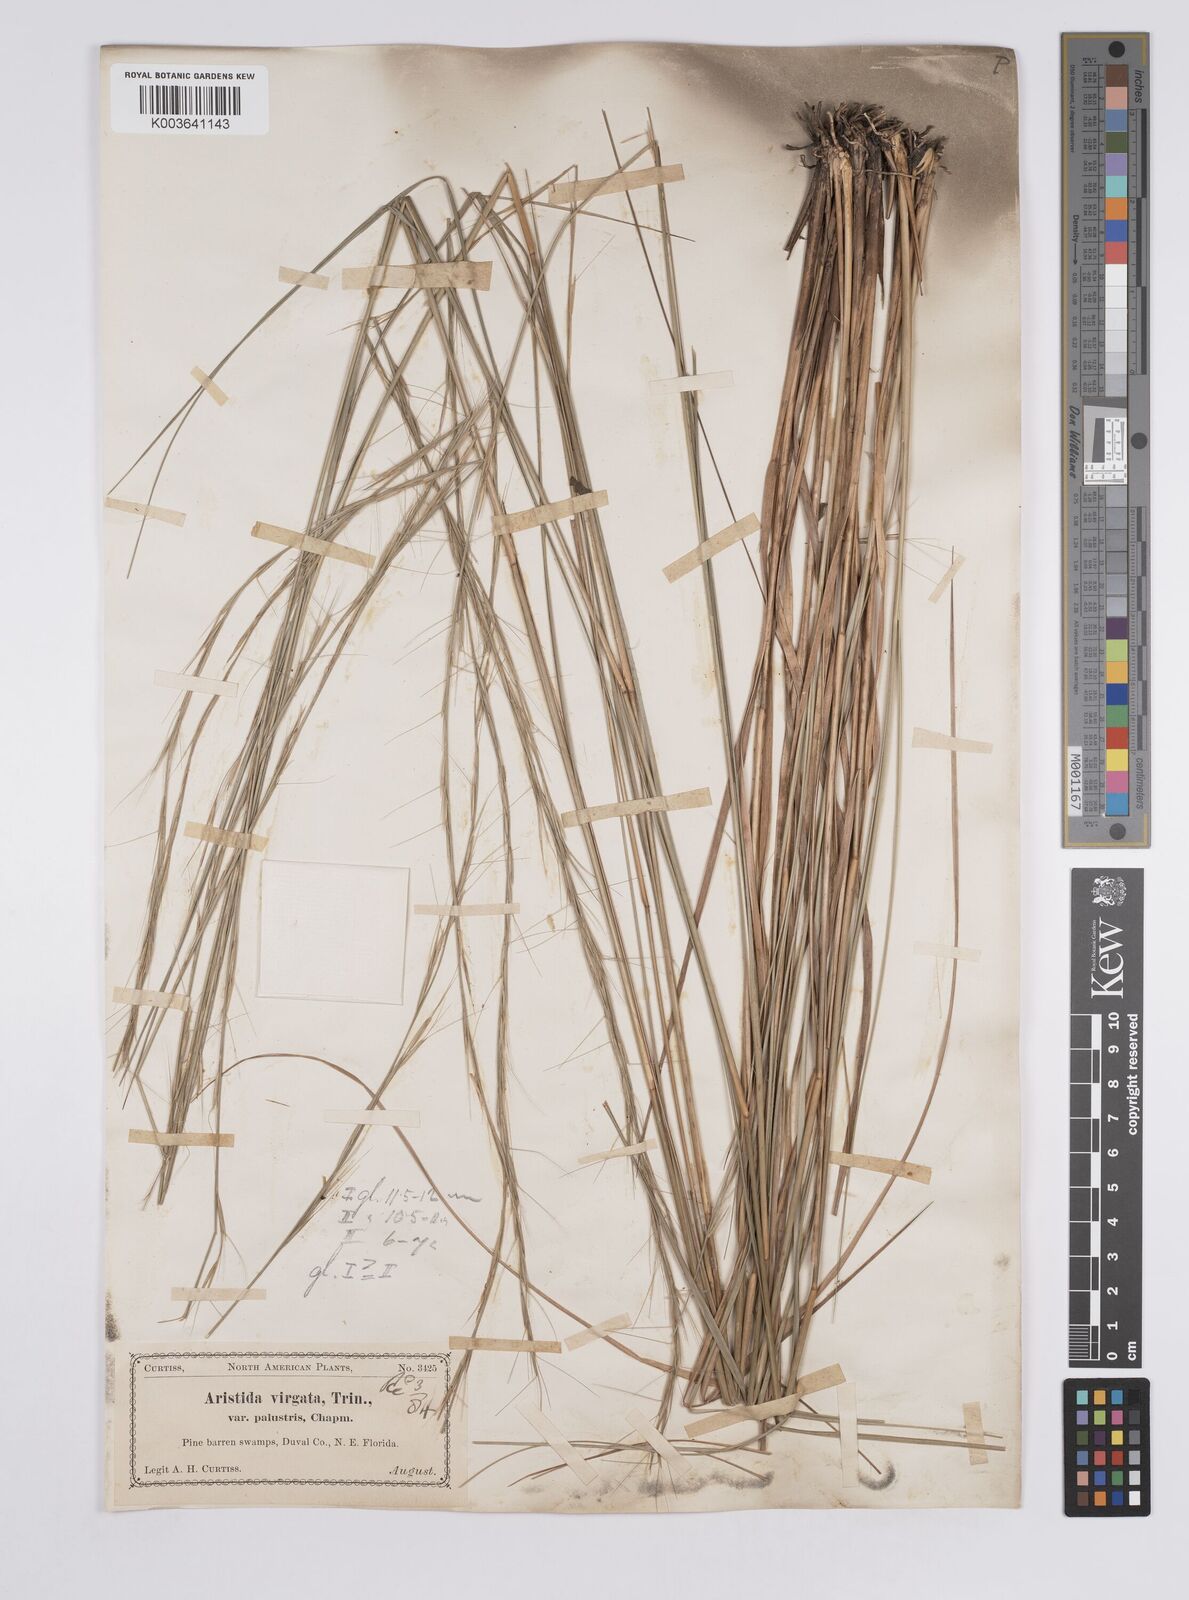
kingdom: Plantae
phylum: Tracheophyta
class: Liliopsida
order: Poales
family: Poaceae
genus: Aristida
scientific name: Aristida palustris
